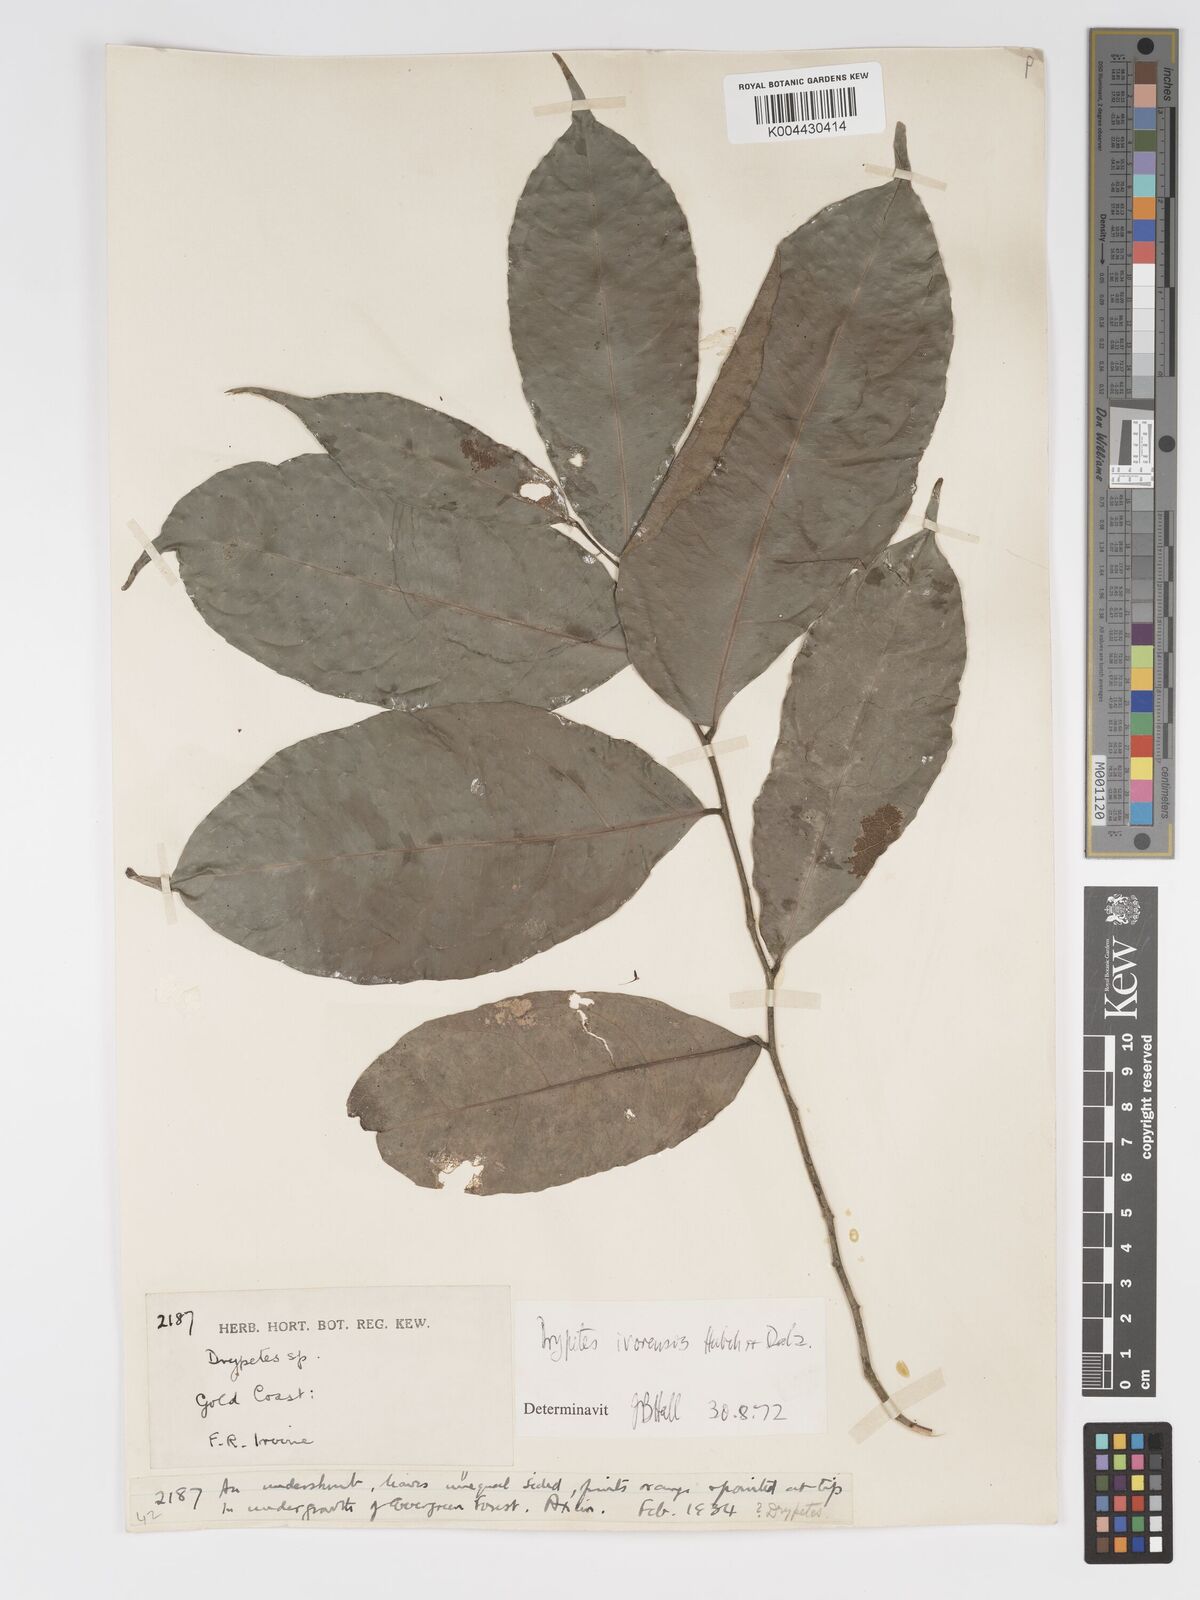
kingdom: Plantae
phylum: Tracheophyta
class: Magnoliopsida
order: Malpighiales
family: Putranjivaceae
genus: Drypetes
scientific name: Drypetes ivorensis
